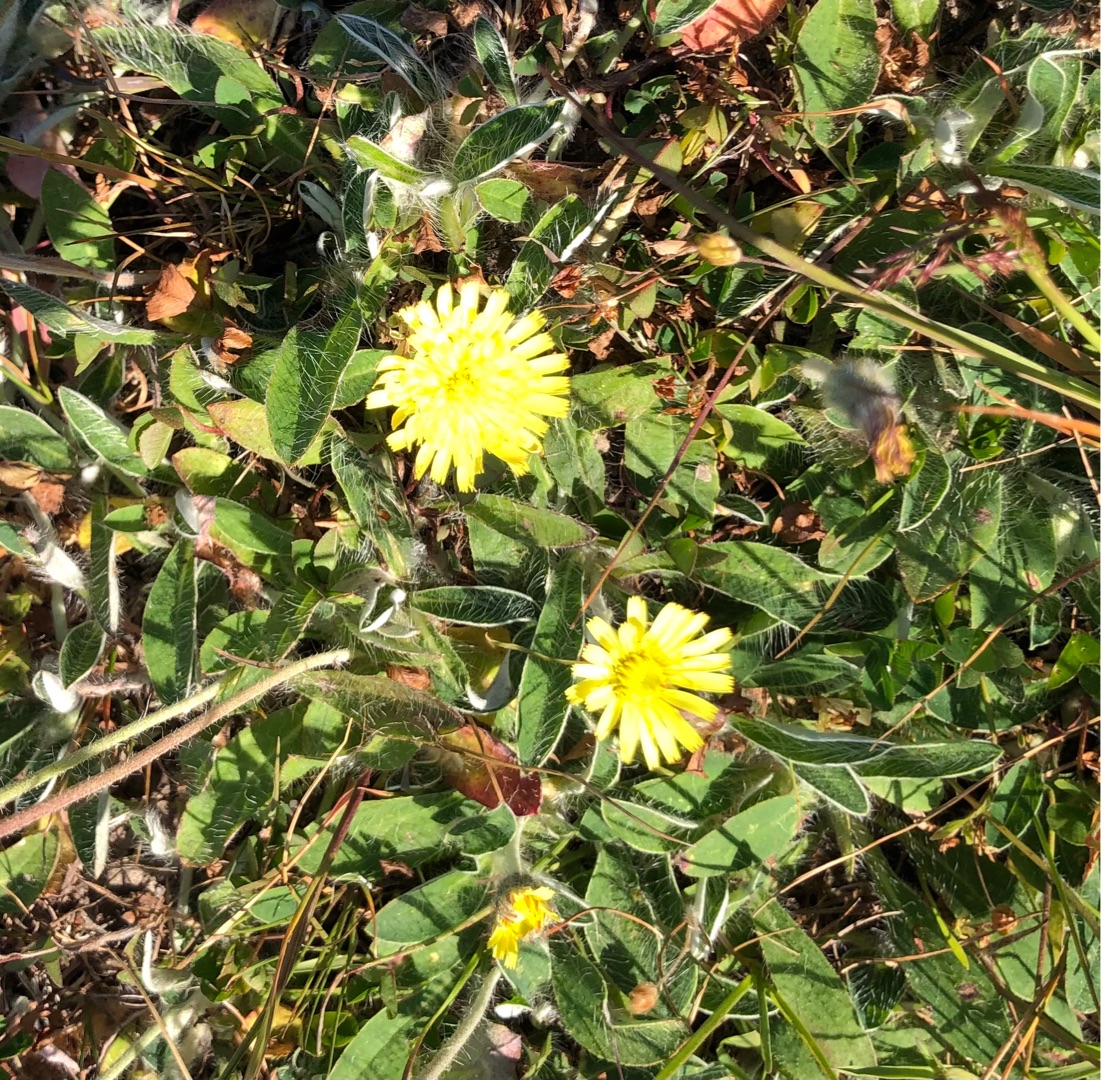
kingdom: Plantae
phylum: Tracheophyta
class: Magnoliopsida
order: Asterales
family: Asteraceae
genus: Pilosella
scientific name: Pilosella officinarum
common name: Håret høgeurt
